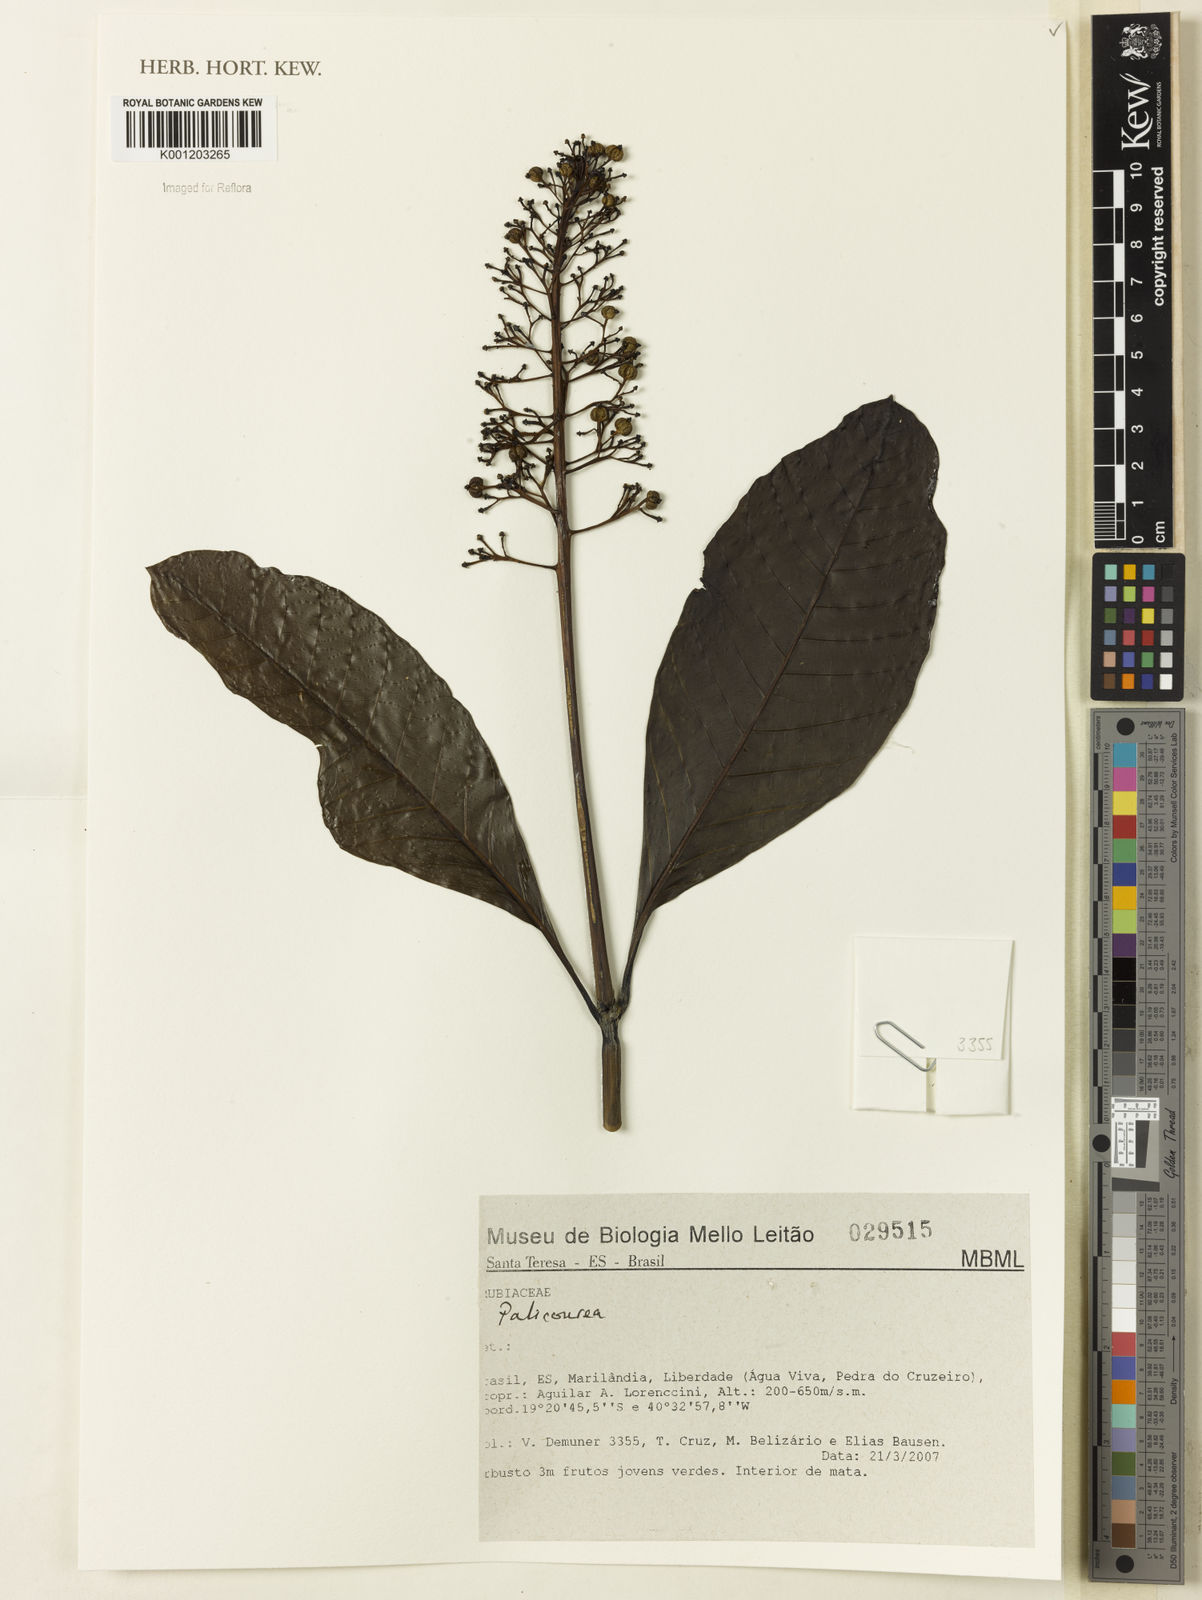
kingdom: Plantae
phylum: Tracheophyta
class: Magnoliopsida
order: Gentianales
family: Rubiaceae
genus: Palicourea
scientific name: Palicourea
